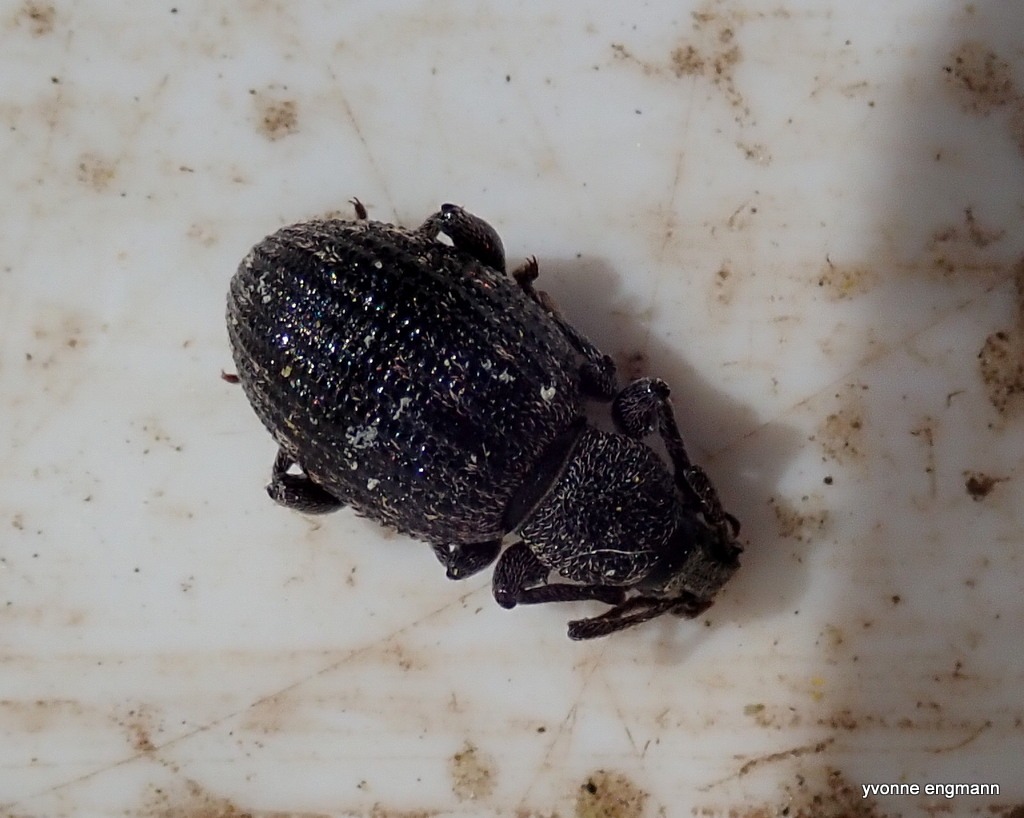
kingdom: Animalia
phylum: Arthropoda
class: Insecta
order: Coleoptera
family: Curculionidae
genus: Otiorhynchus
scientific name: Otiorhynchus tristis
